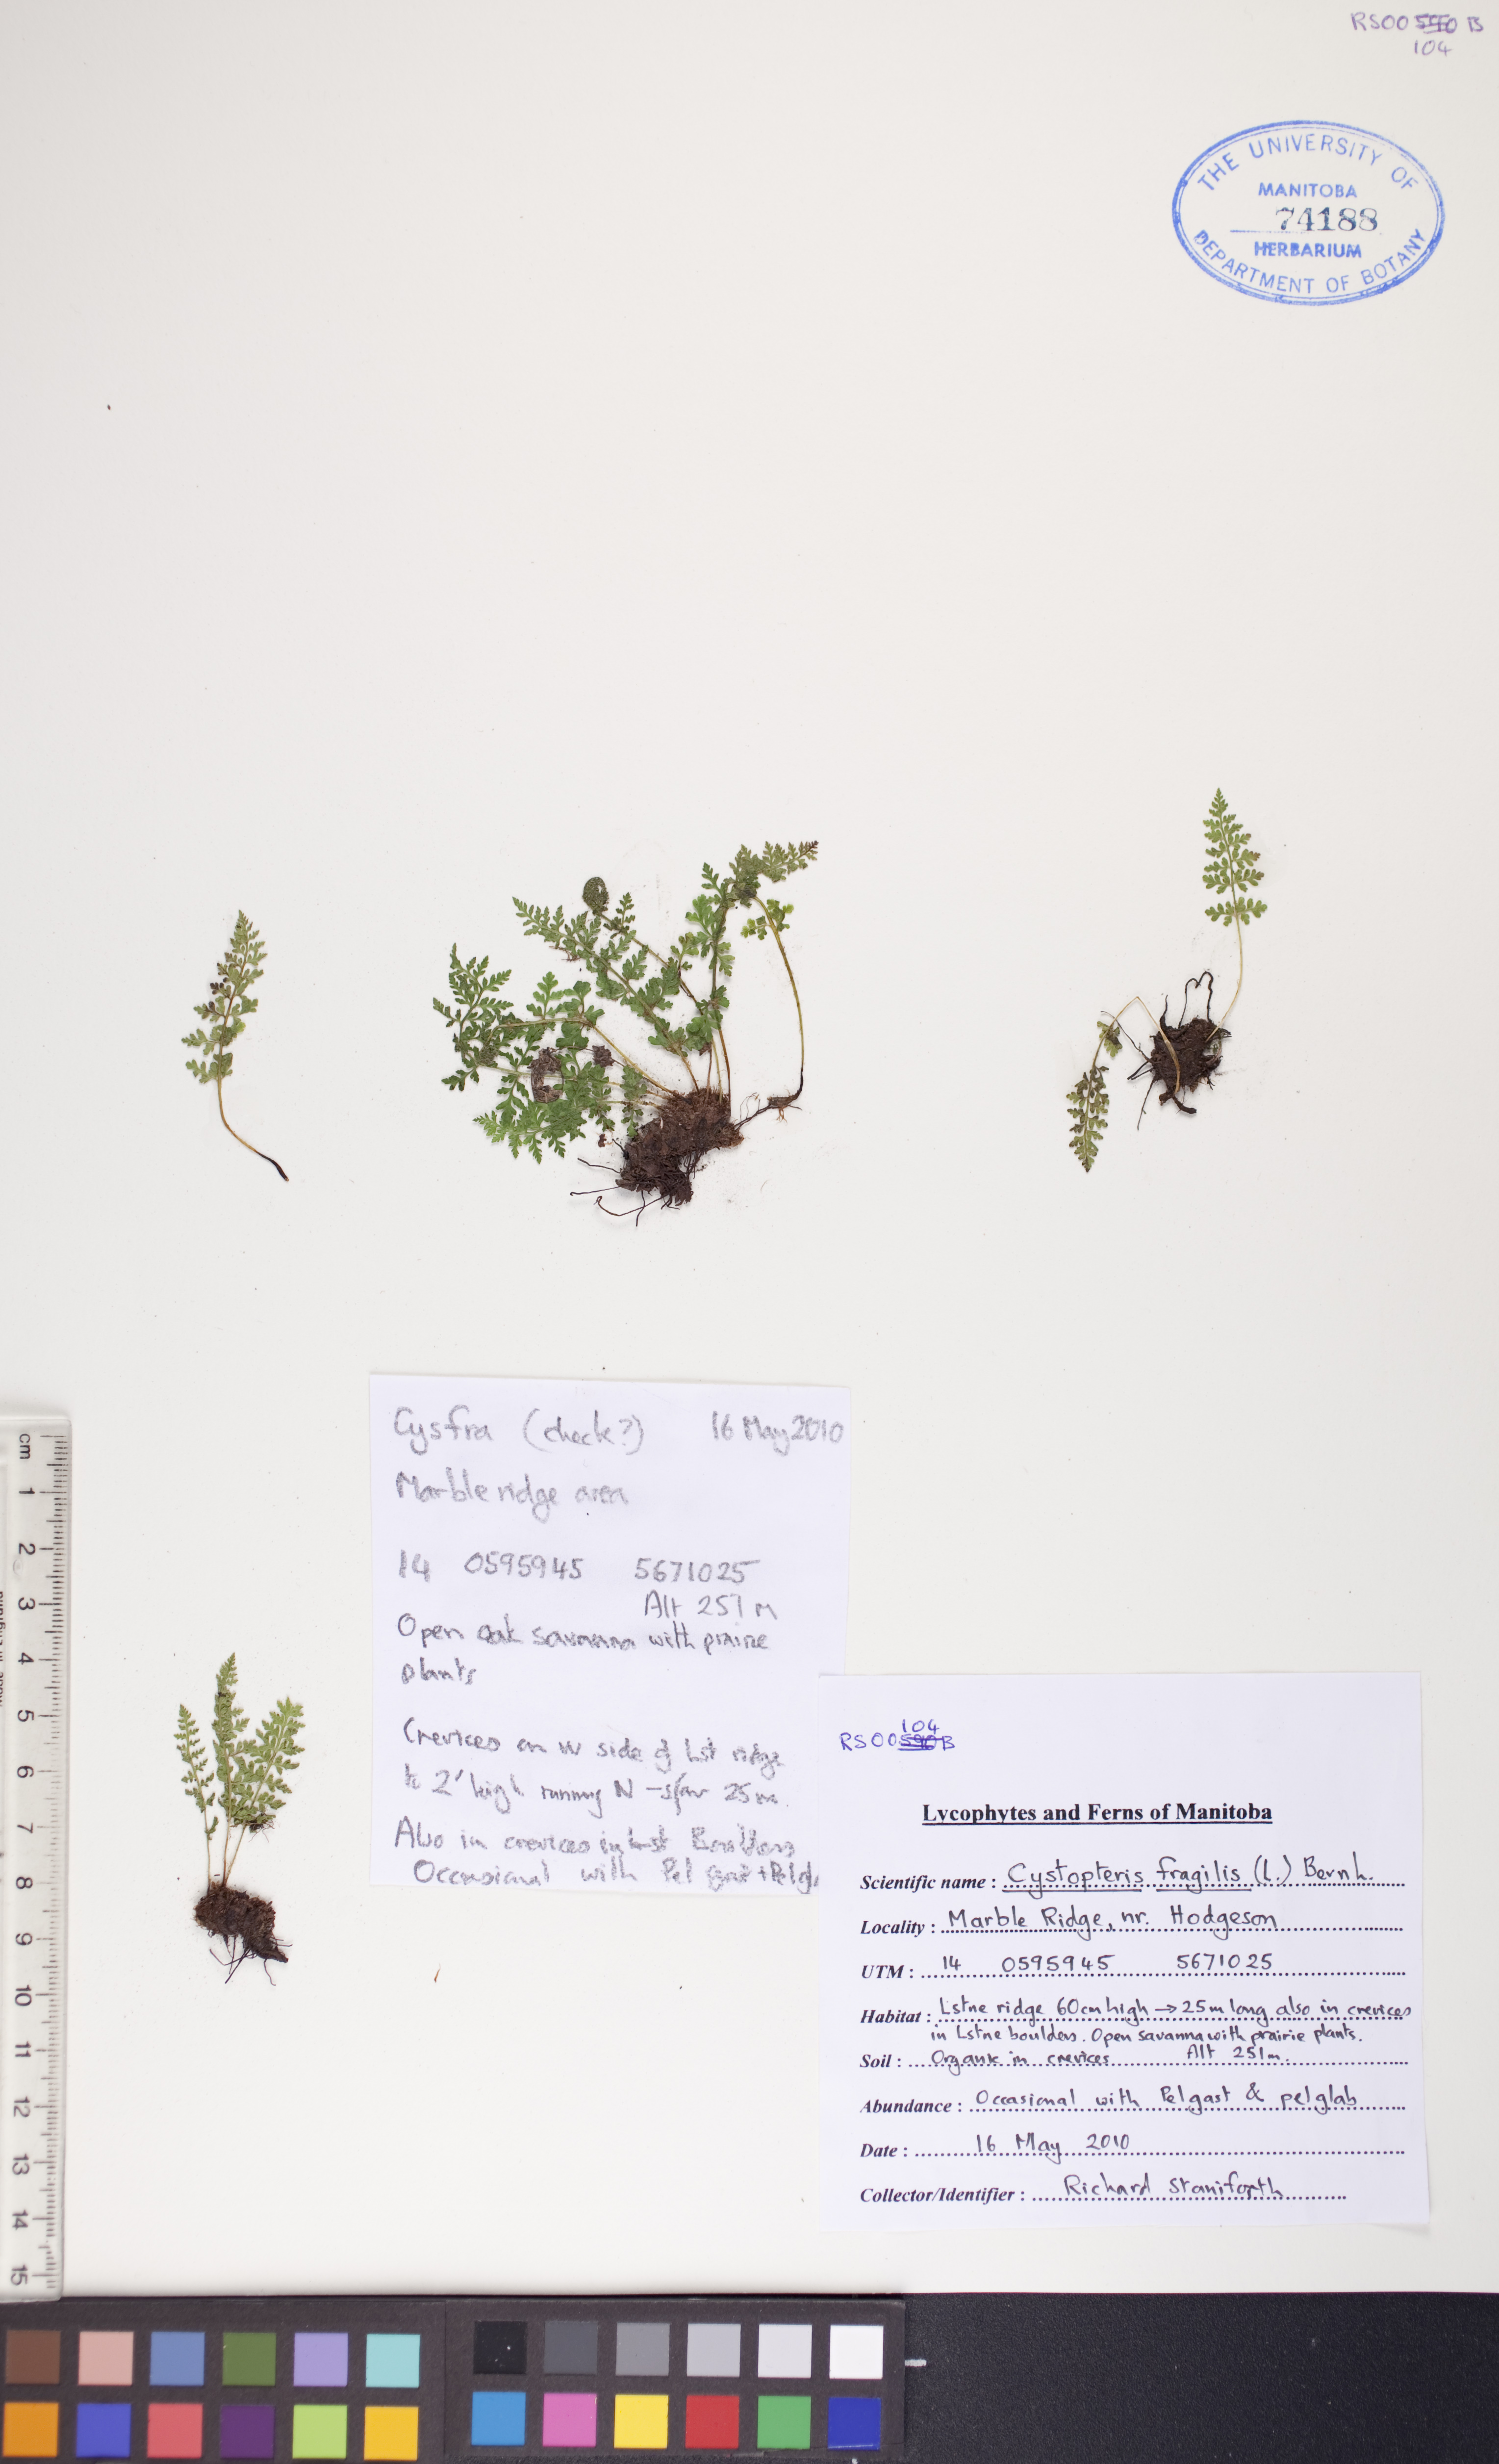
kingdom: Plantae
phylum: Tracheophyta
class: Polypodiopsida
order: Polypodiales
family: Cystopteridaceae
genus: Cystopteris
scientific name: Cystopteris fragilis
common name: Brittle bladder fern
